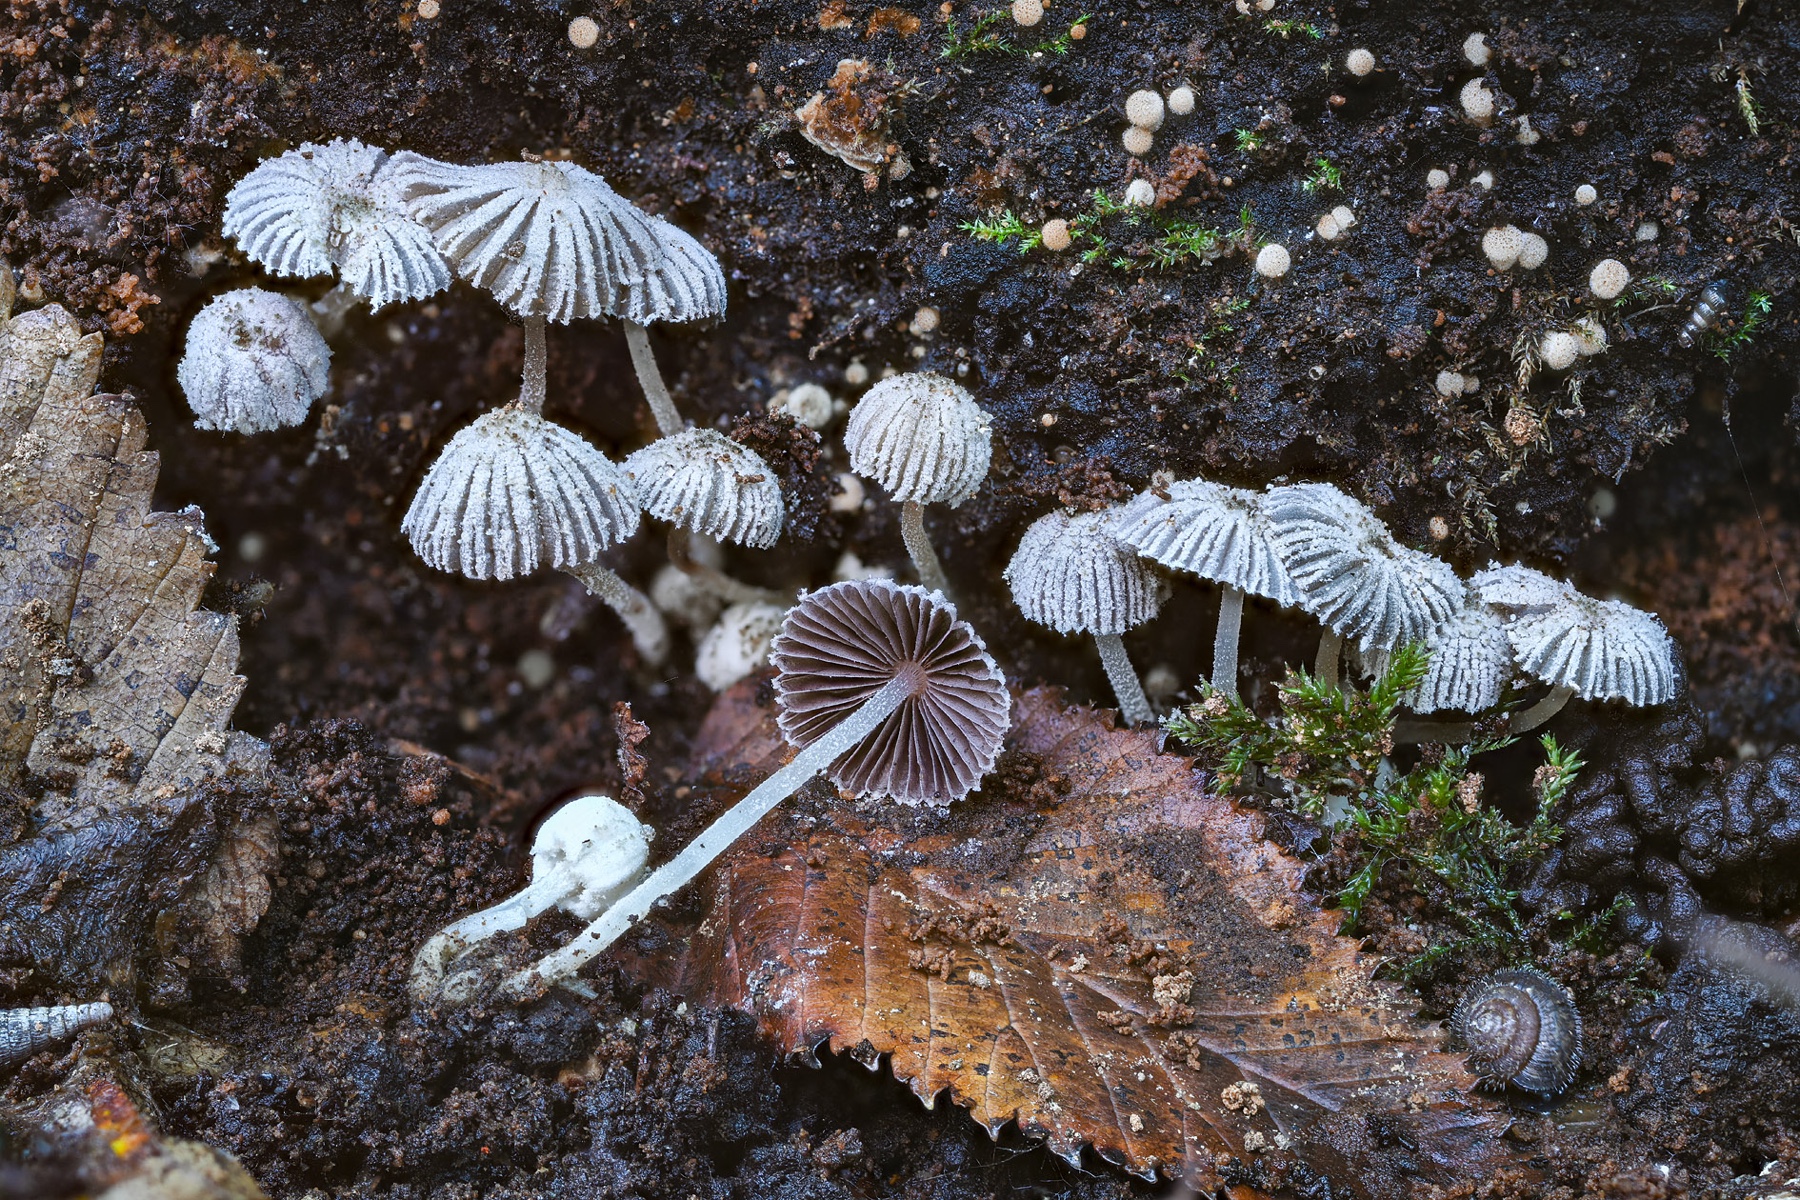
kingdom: Fungi
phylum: Basidiomycota
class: Agaricomycetes
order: Agaricales
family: Psathyrellaceae
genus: Coprinopsis
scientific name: Coprinopsis coniophora
